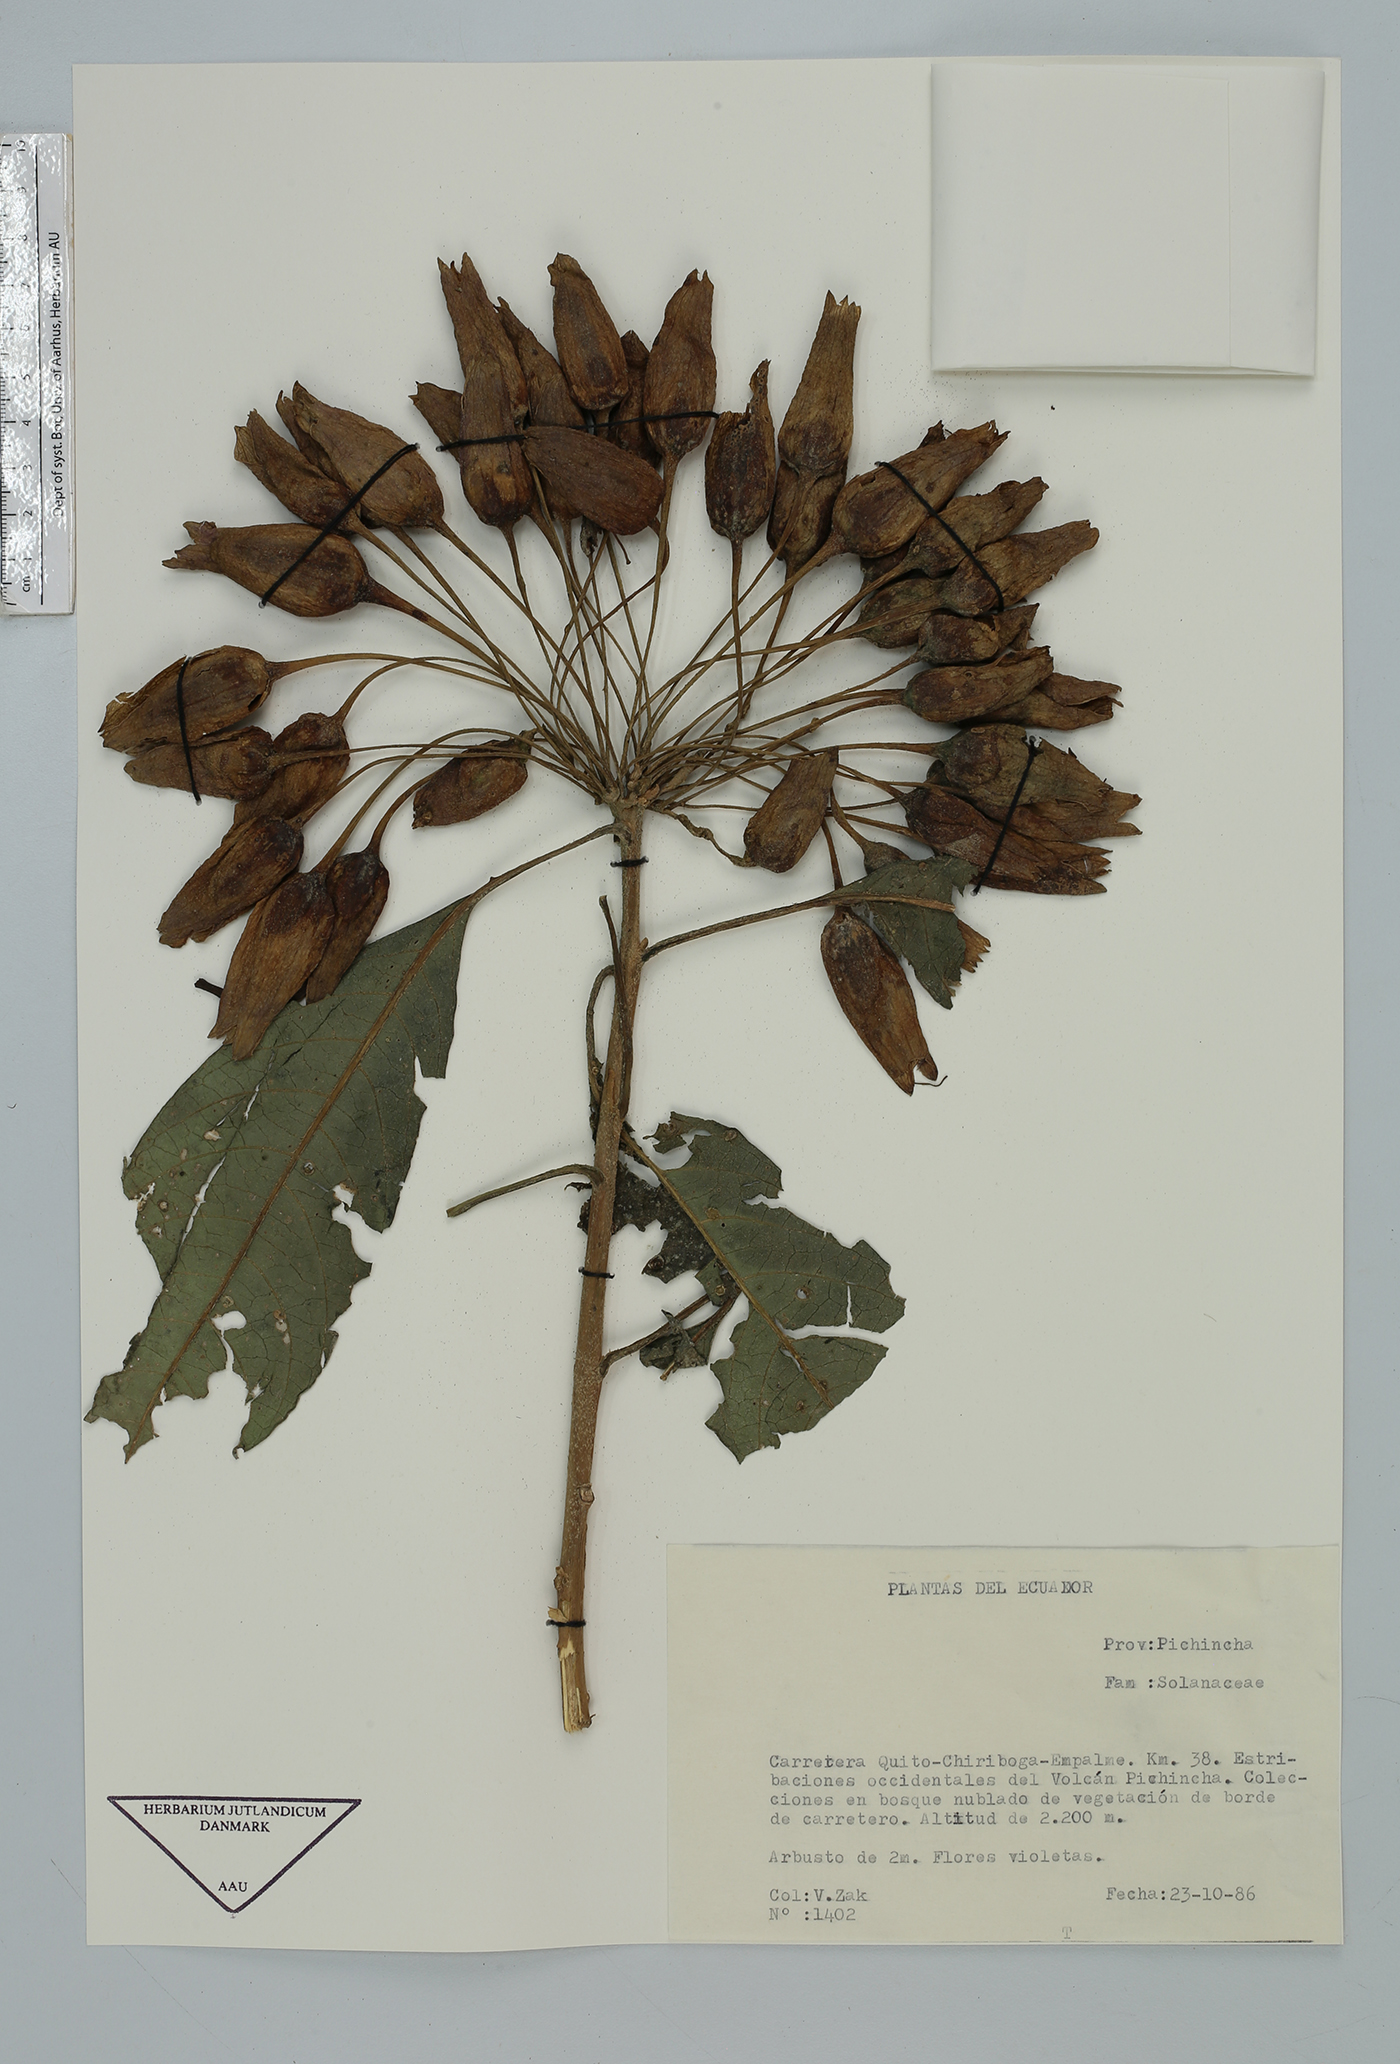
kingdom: Plantae
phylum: Tracheophyta
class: Magnoliopsida
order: Solanales
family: Solanaceae
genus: Iochroma
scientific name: Iochroma
